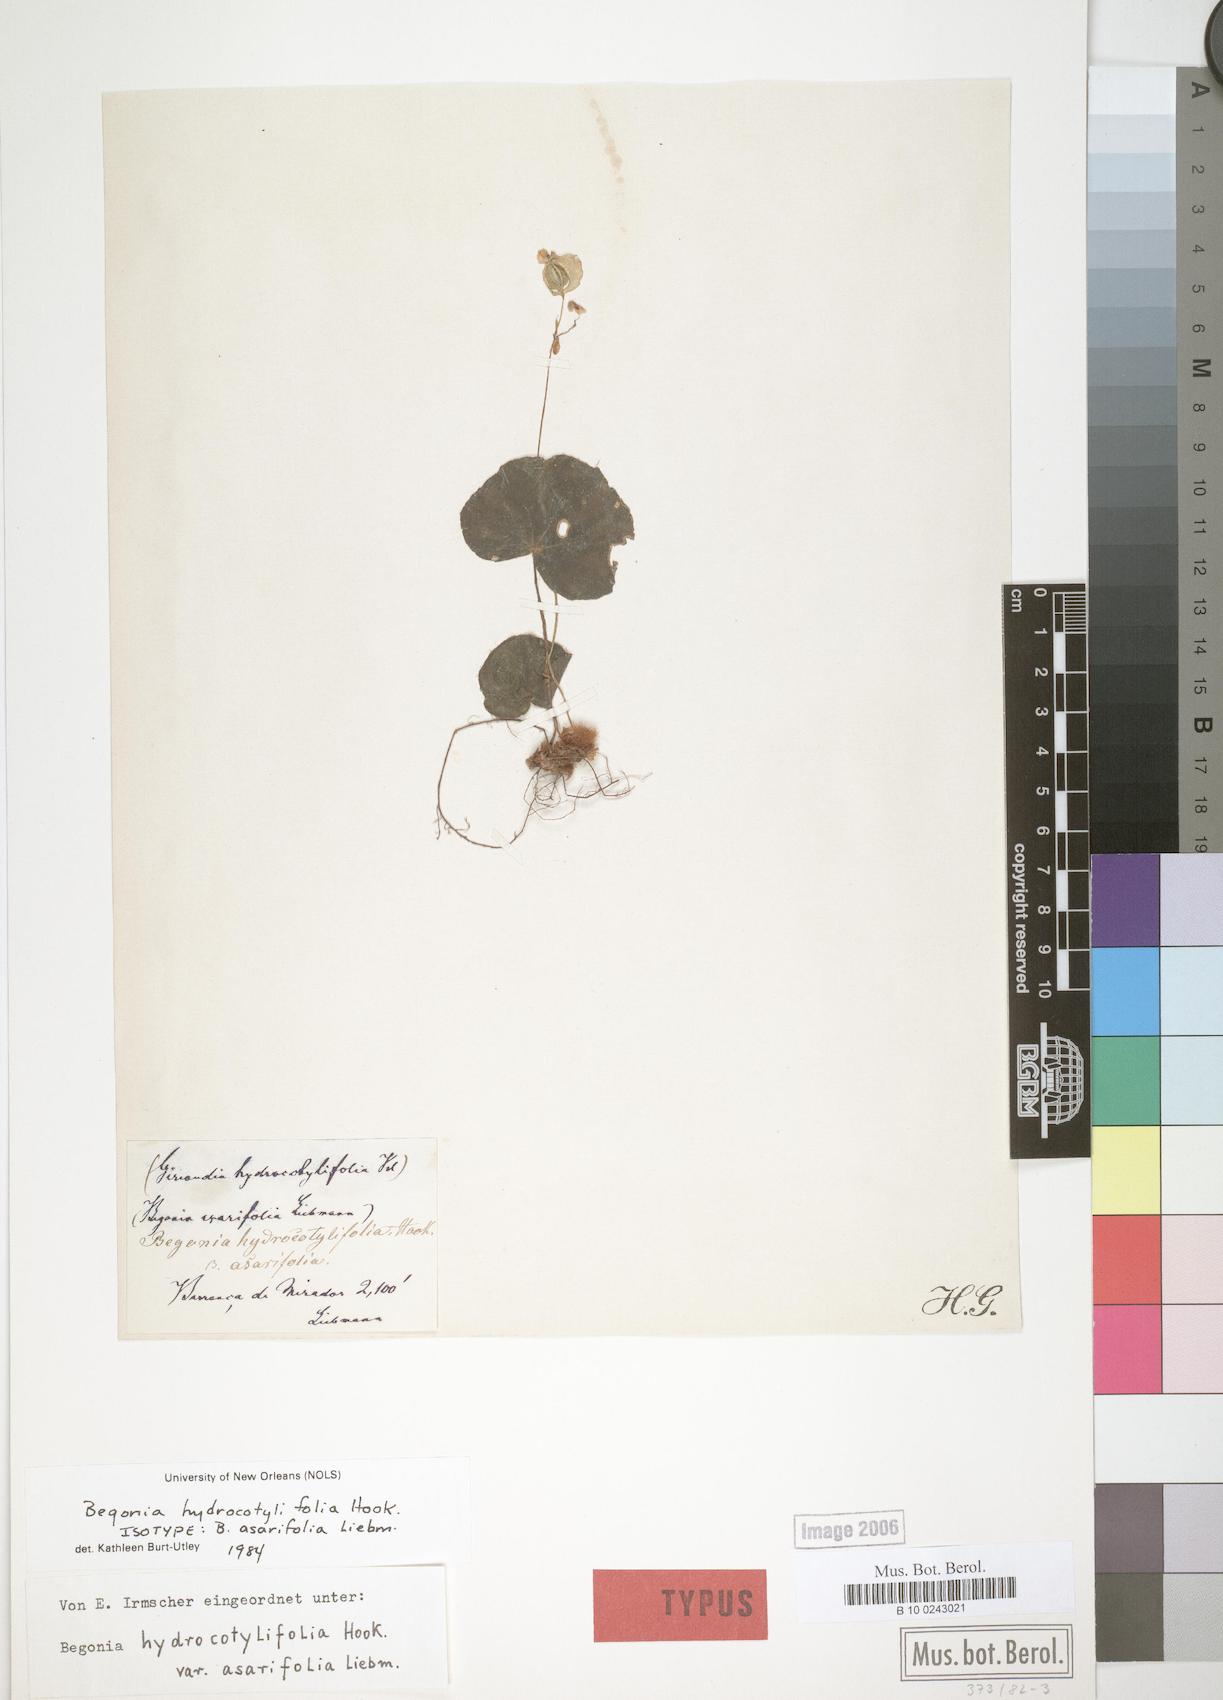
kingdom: Plantae
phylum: Tracheophyta
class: Magnoliopsida
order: Cucurbitales
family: Begoniaceae
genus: Begonia
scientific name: Begonia hydrocotylifolia
